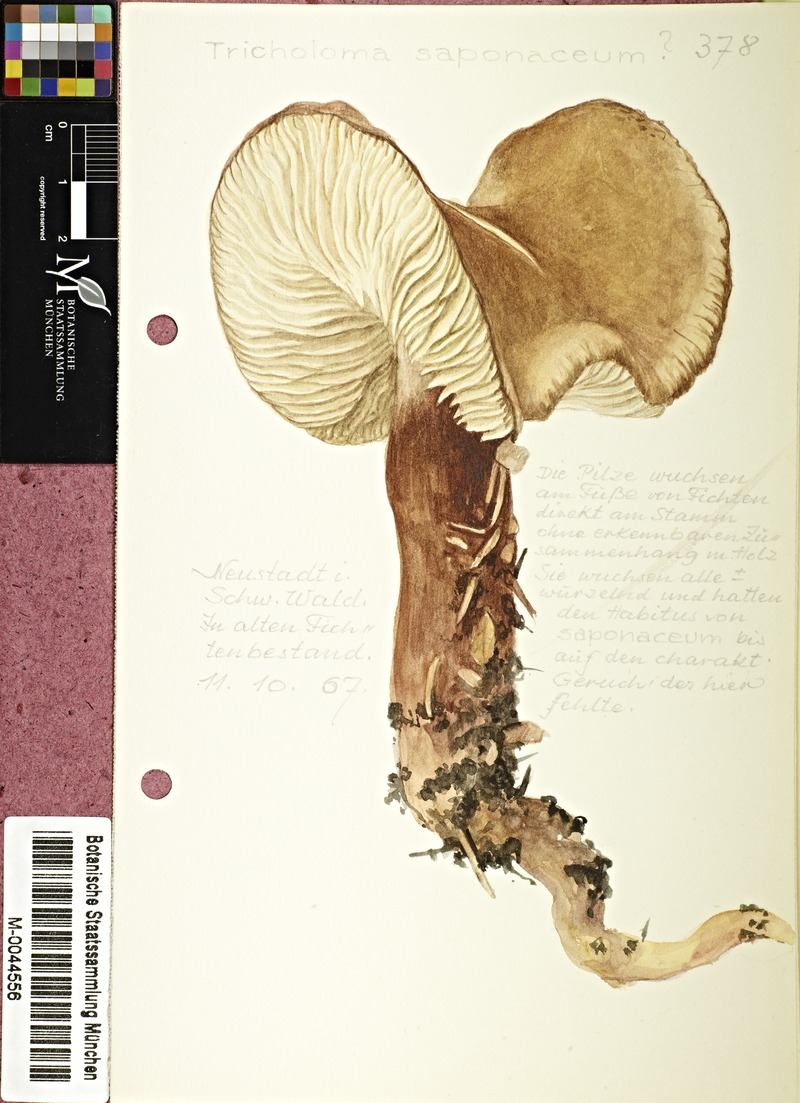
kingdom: Fungi
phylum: Basidiomycota
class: Agaricomycetes
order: Agaricales
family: Tricholomataceae
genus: Tricholoma
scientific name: Tricholoma saponaceum
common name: Soapy trich
